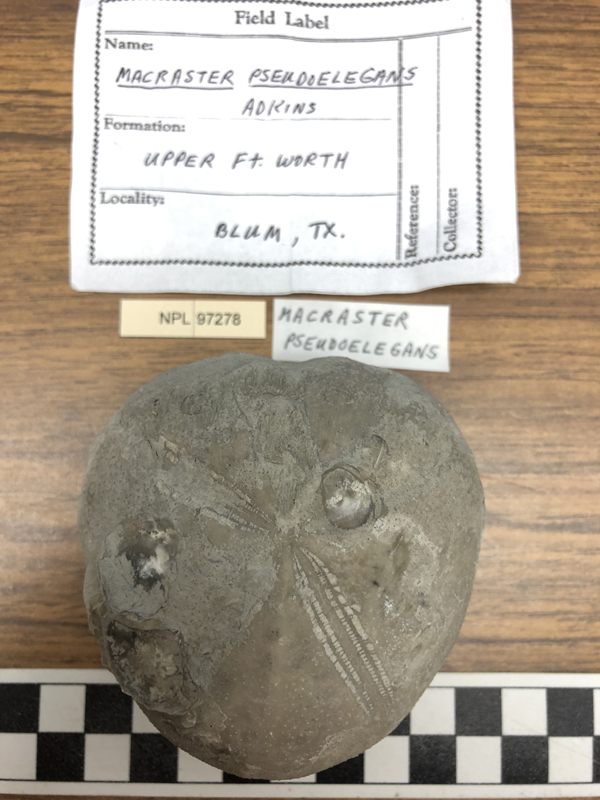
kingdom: Animalia
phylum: Echinodermata
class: Echinoidea
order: Spatangoida
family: Toxasteridae
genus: Macraster
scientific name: Macraster elegans
